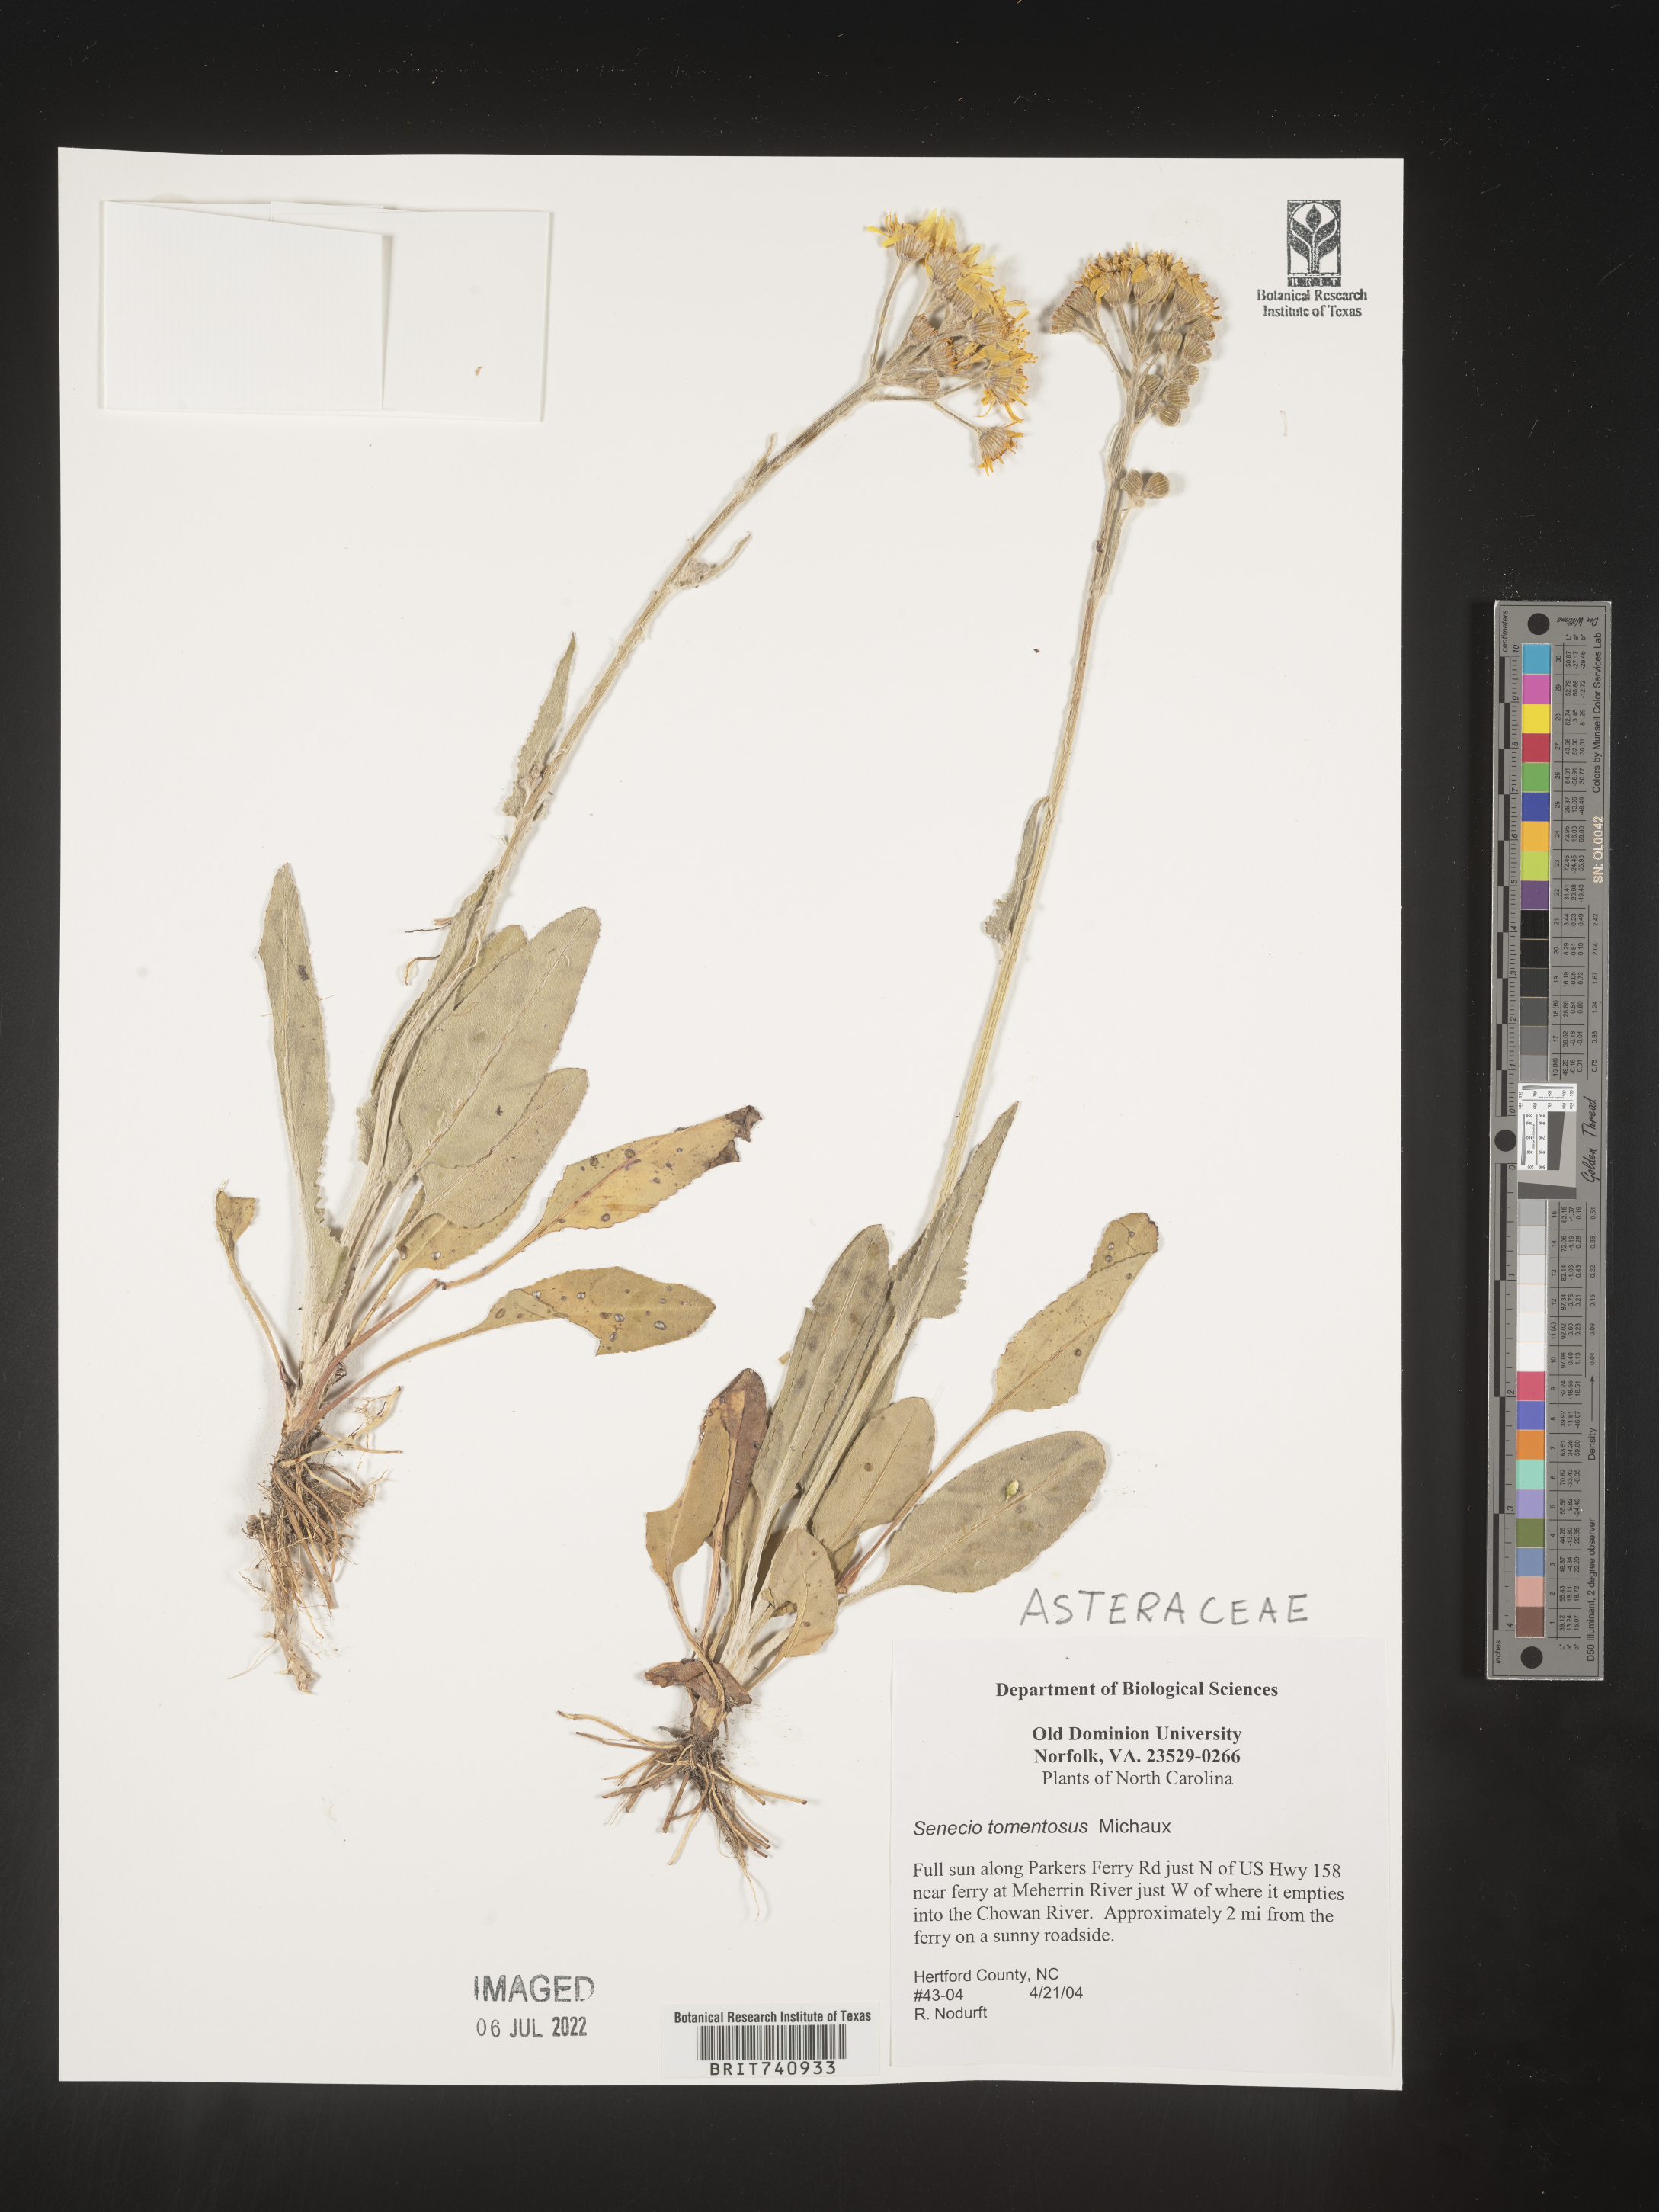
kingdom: Plantae
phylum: Tracheophyta
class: Magnoliopsida
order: Asterales
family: Asteraceae
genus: Senecio
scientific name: Senecio cinerascens
